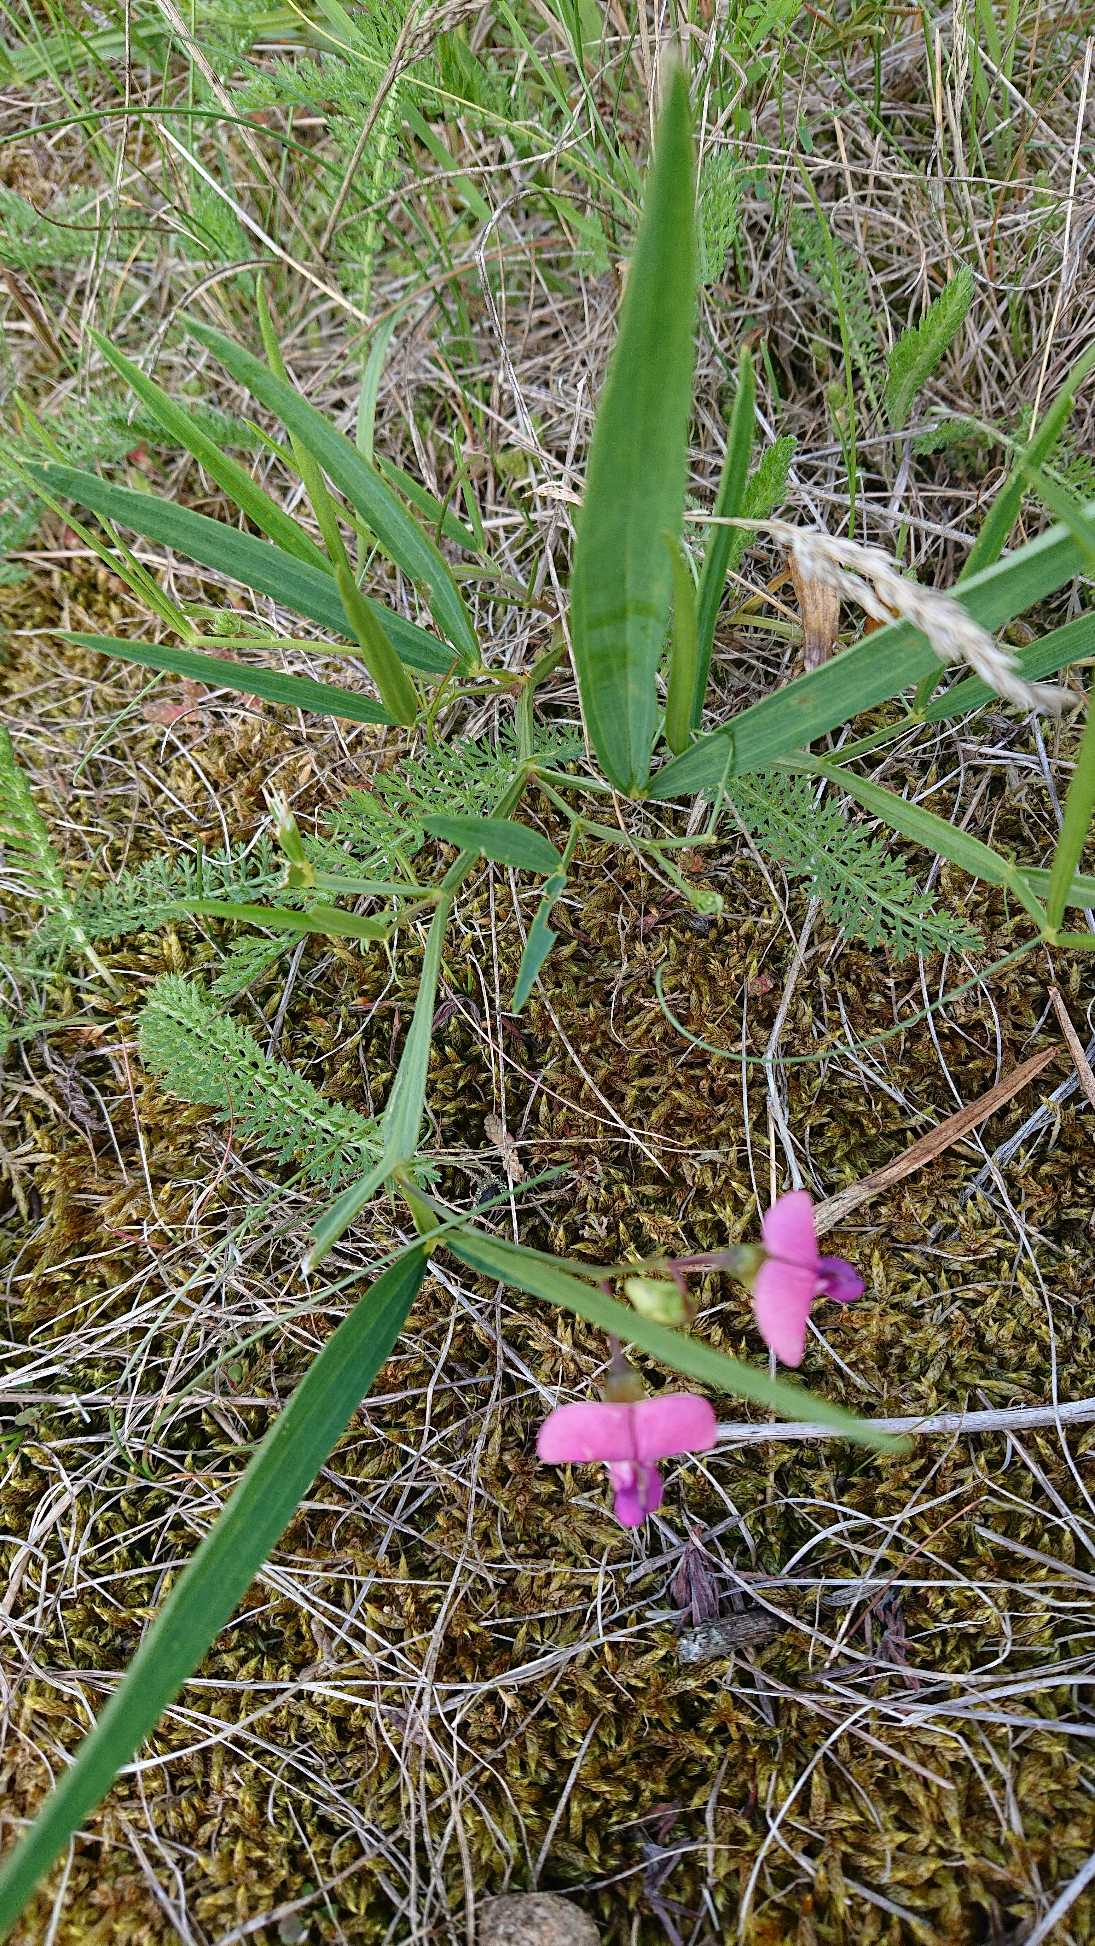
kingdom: Plantae
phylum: Tracheophyta
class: Magnoliopsida
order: Fabales
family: Fabaceae
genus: Lathyrus
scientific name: Lathyrus sylvestris
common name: Skov-fladbælg
